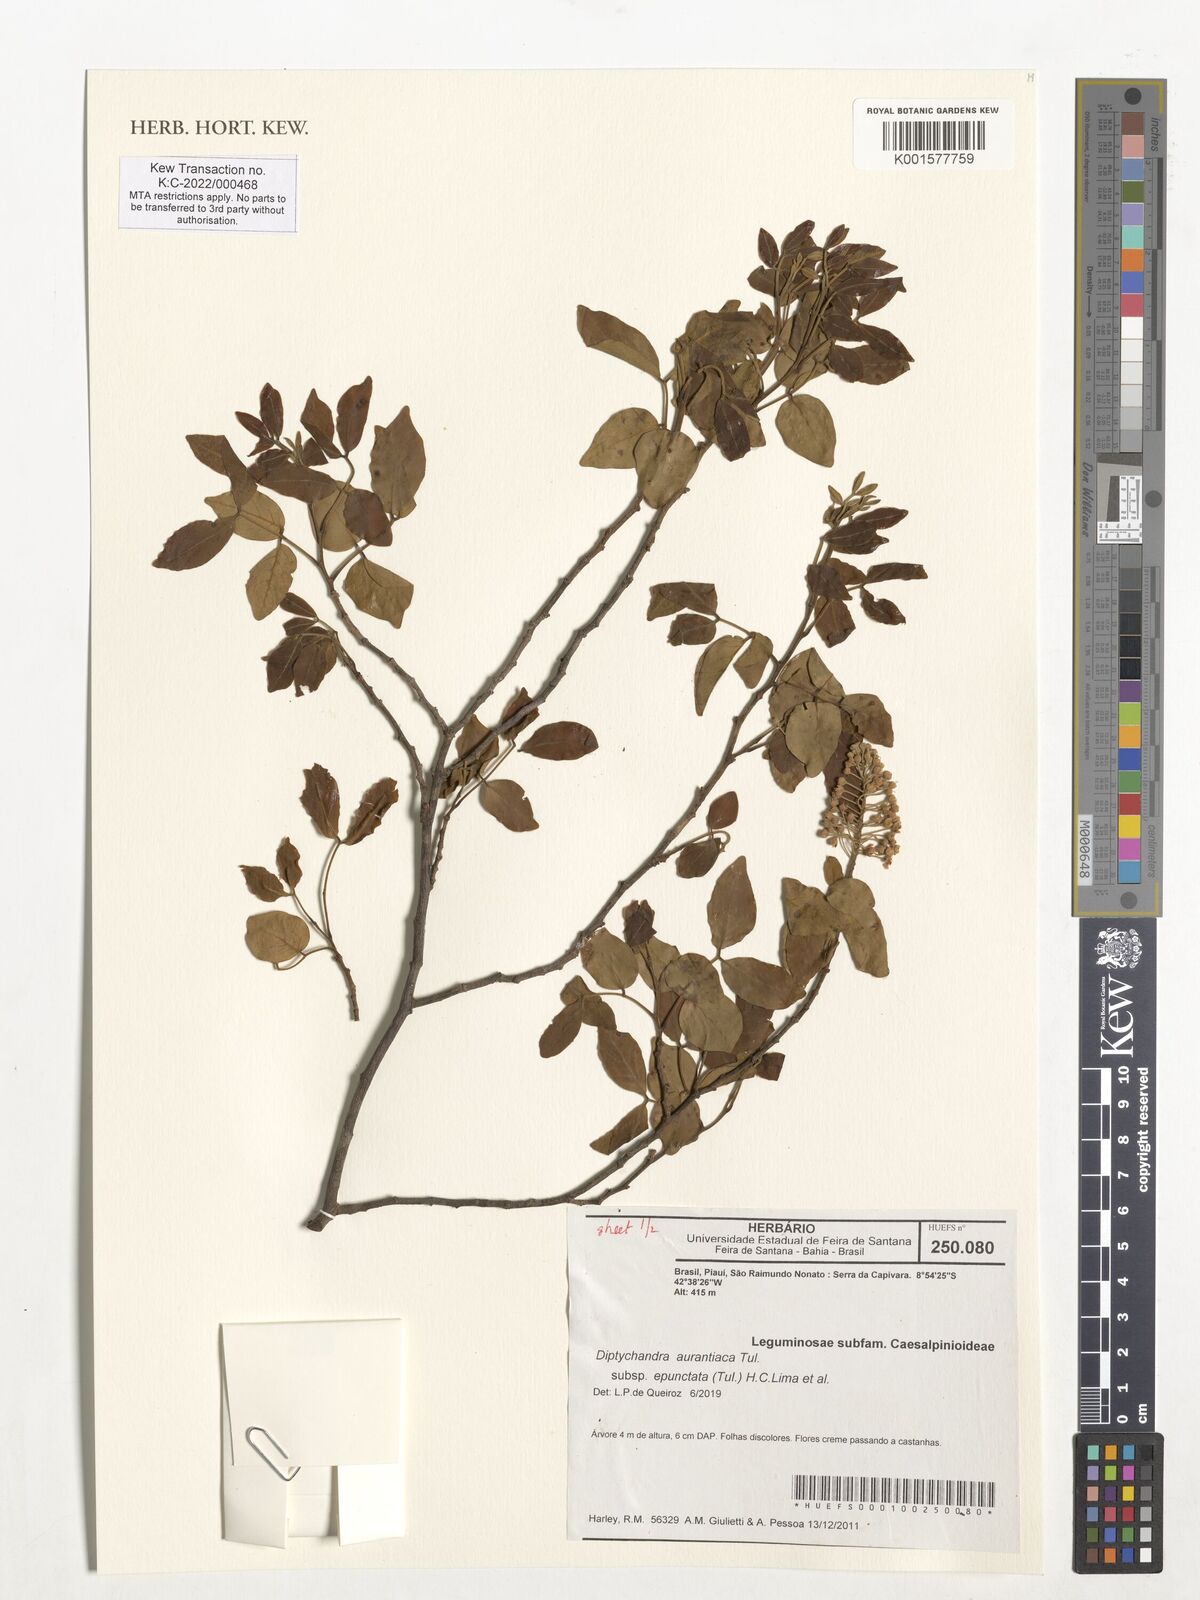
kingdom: Plantae
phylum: Tracheophyta
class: Magnoliopsida
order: Fabales
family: Fabaceae
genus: Diptychandra
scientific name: Diptychandra aurantiaca
